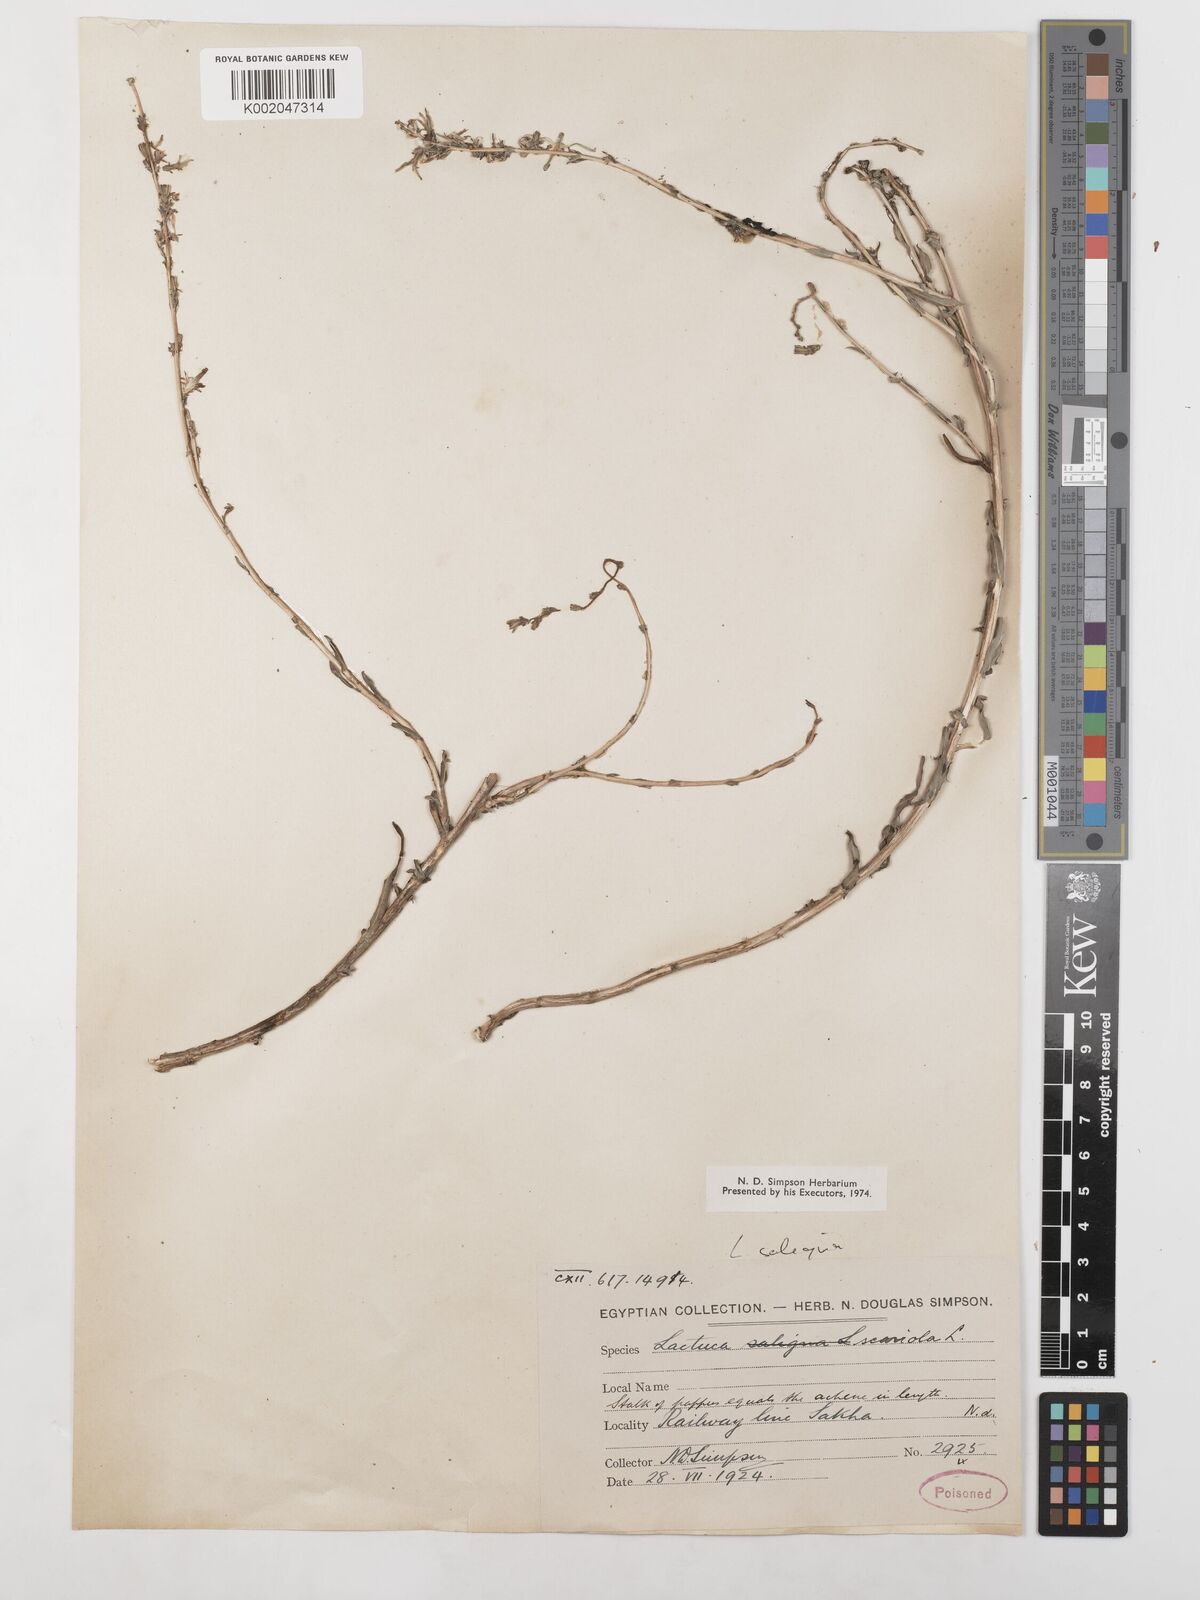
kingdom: Plantae
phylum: Tracheophyta
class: Magnoliopsida
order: Asterales
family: Asteraceae
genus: Lactuca
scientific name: Lactuca saligna
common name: Wild lettuce
